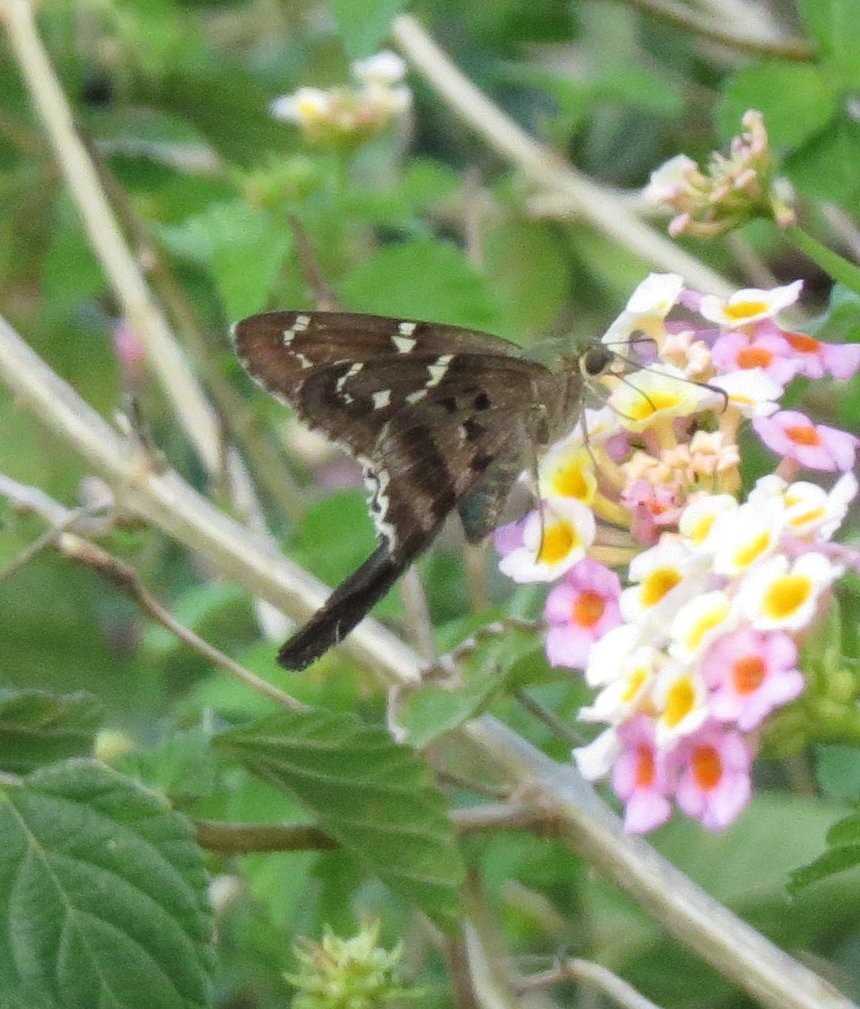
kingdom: Animalia
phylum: Arthropoda
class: Insecta
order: Lepidoptera
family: Hesperiidae
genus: Urbanus
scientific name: Urbanus proteus
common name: Long-tailed Skipper
